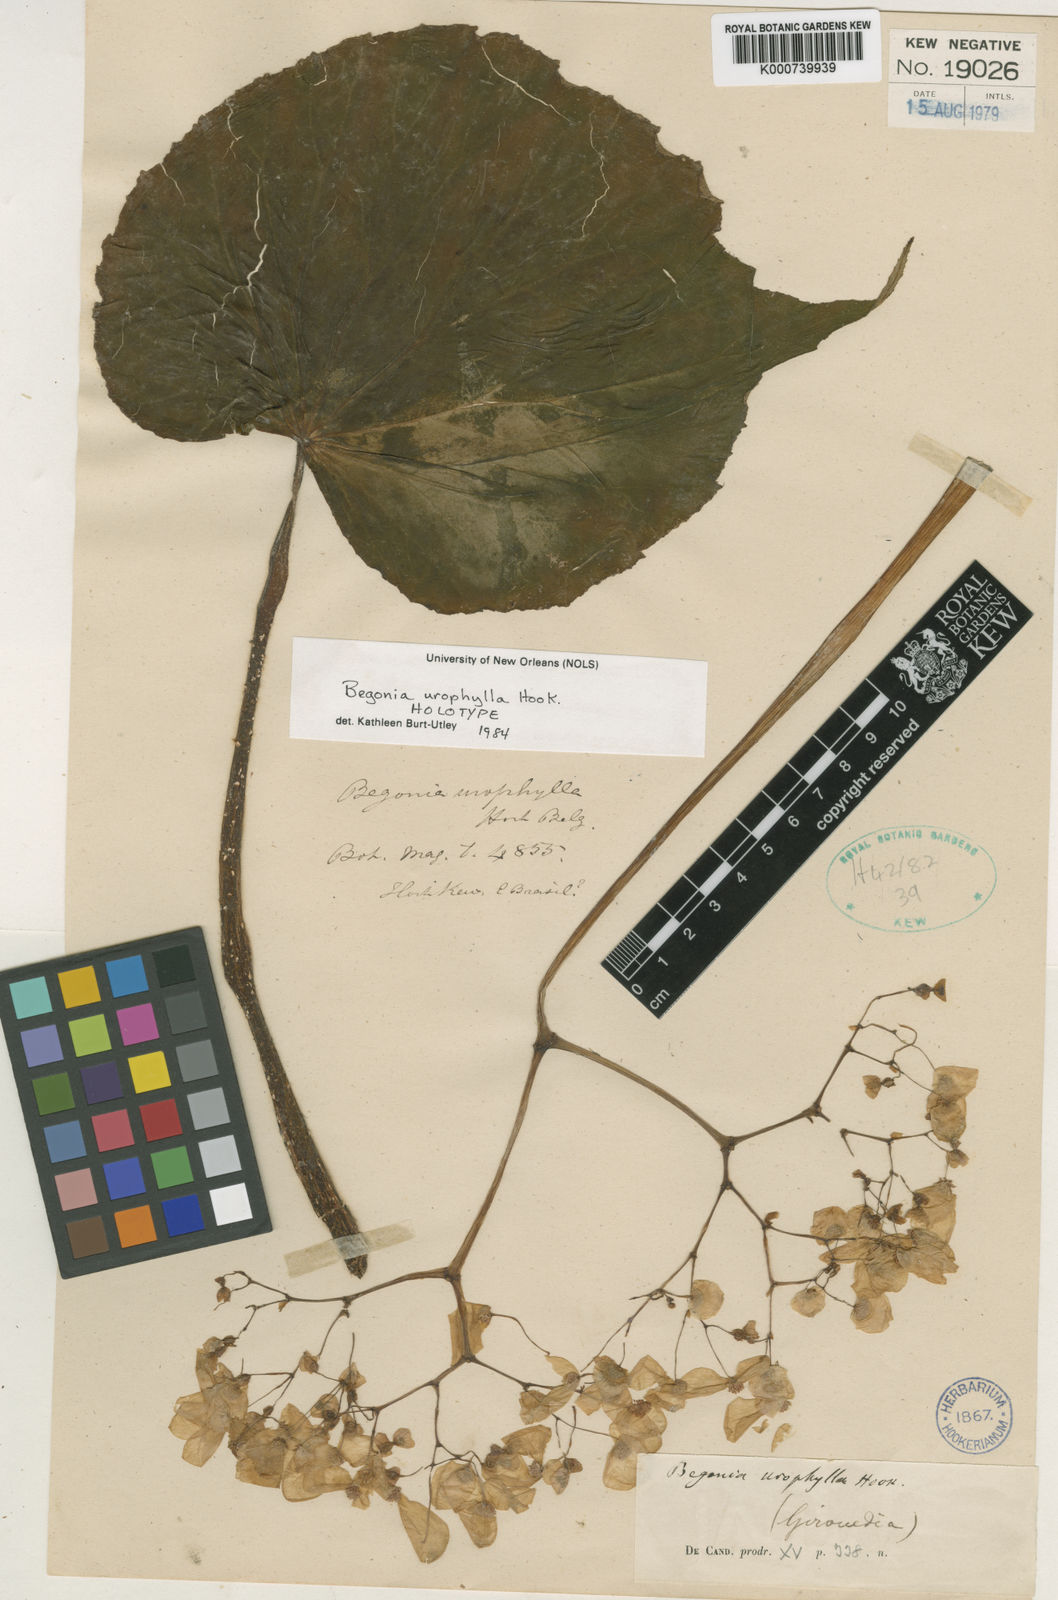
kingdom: Plantae
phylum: Tracheophyta
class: Magnoliopsida
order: Cucurbitales
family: Begoniaceae
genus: Begonia
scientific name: Begonia urophylla
